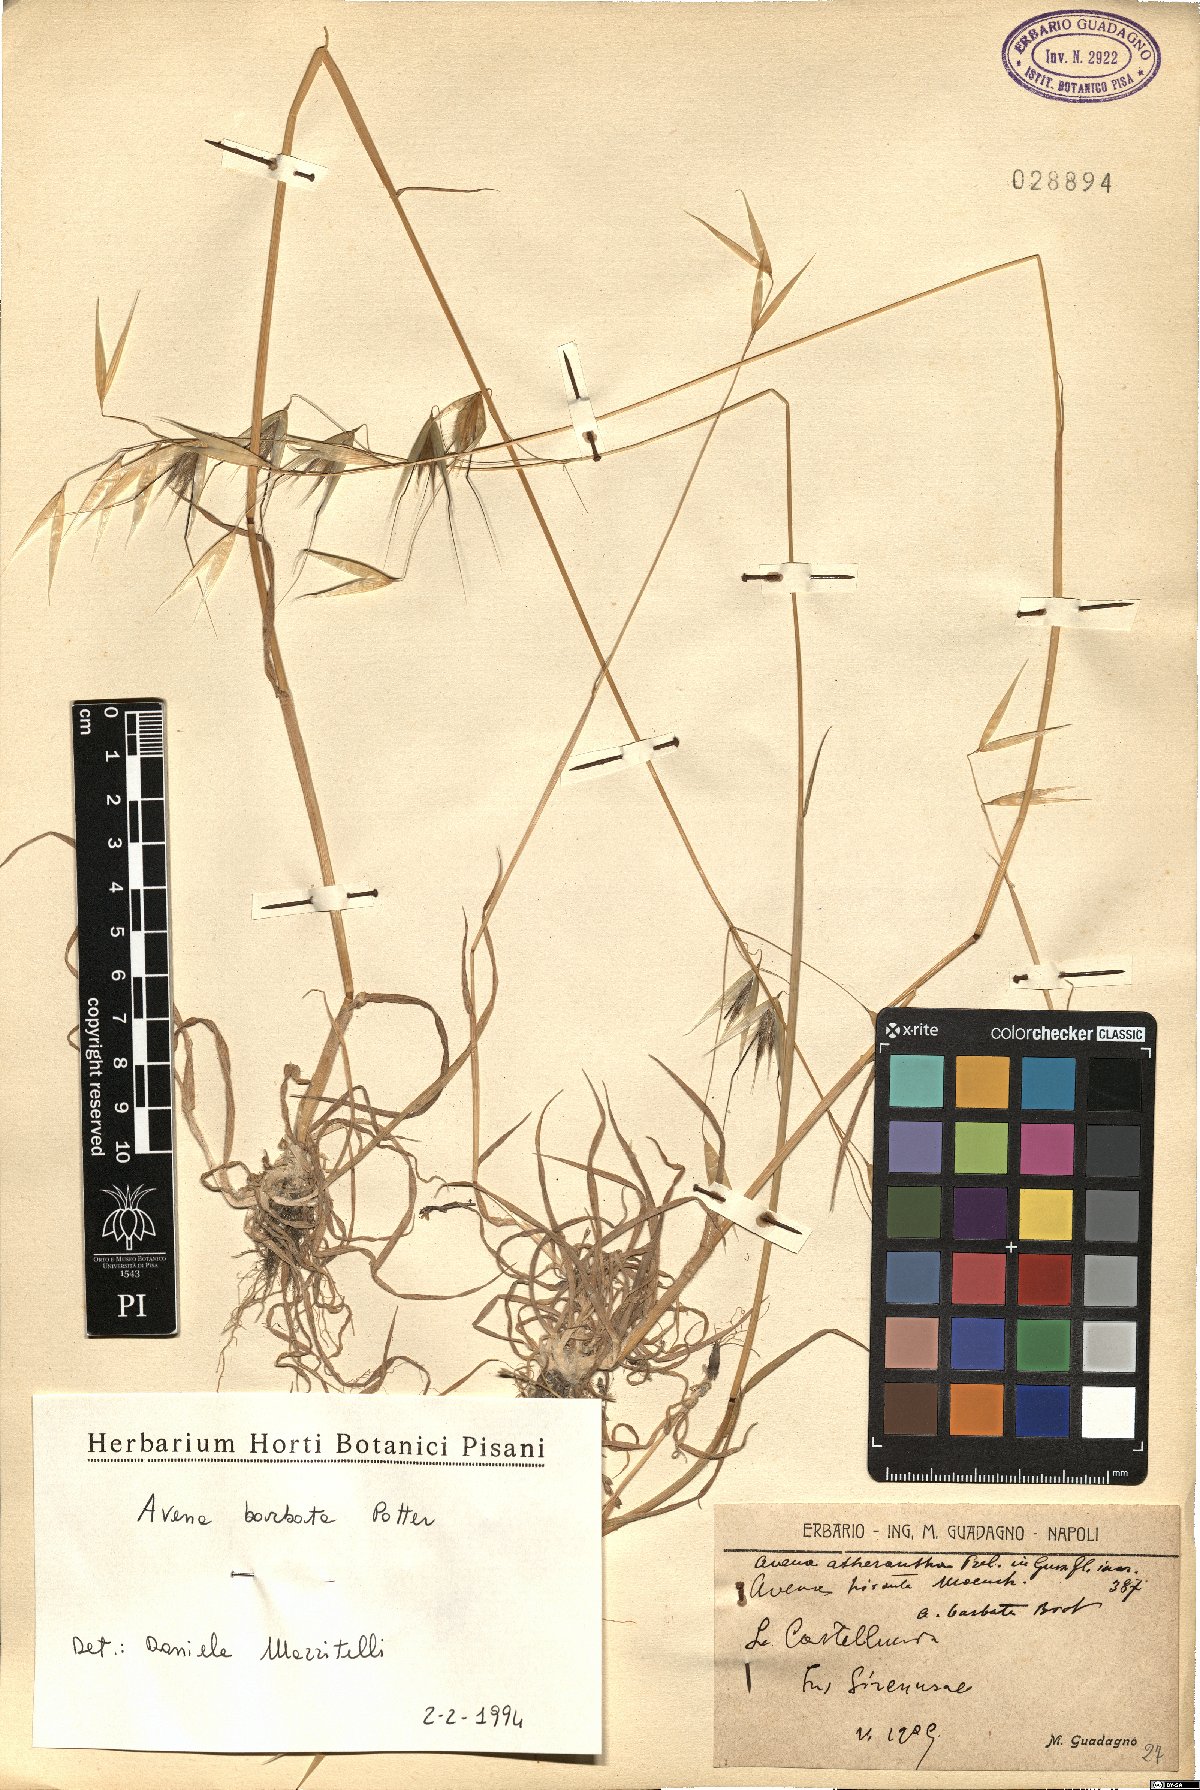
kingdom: Plantae
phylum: Tracheophyta
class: Liliopsida
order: Poales
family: Poaceae
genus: Avena
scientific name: Avena barbata
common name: Slender oat
